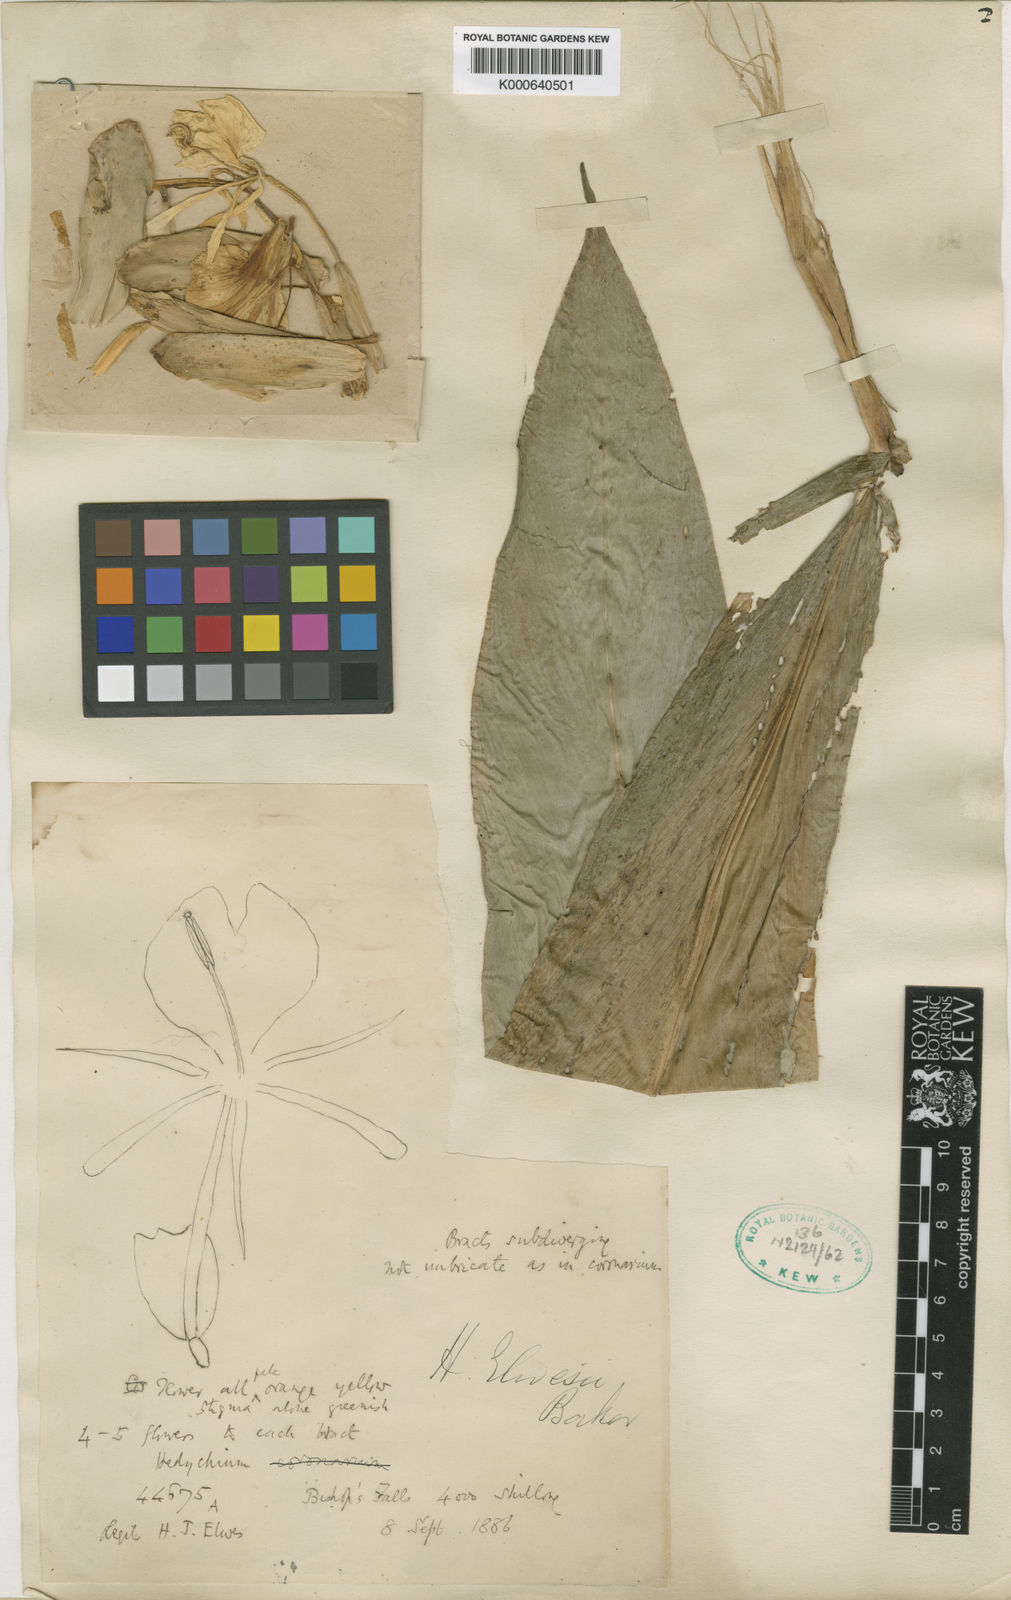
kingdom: Plantae
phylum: Tracheophyta
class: Liliopsida
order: Zingiberales
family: Zingiberaceae
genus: Hedychium
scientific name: Hedychium elwesii
